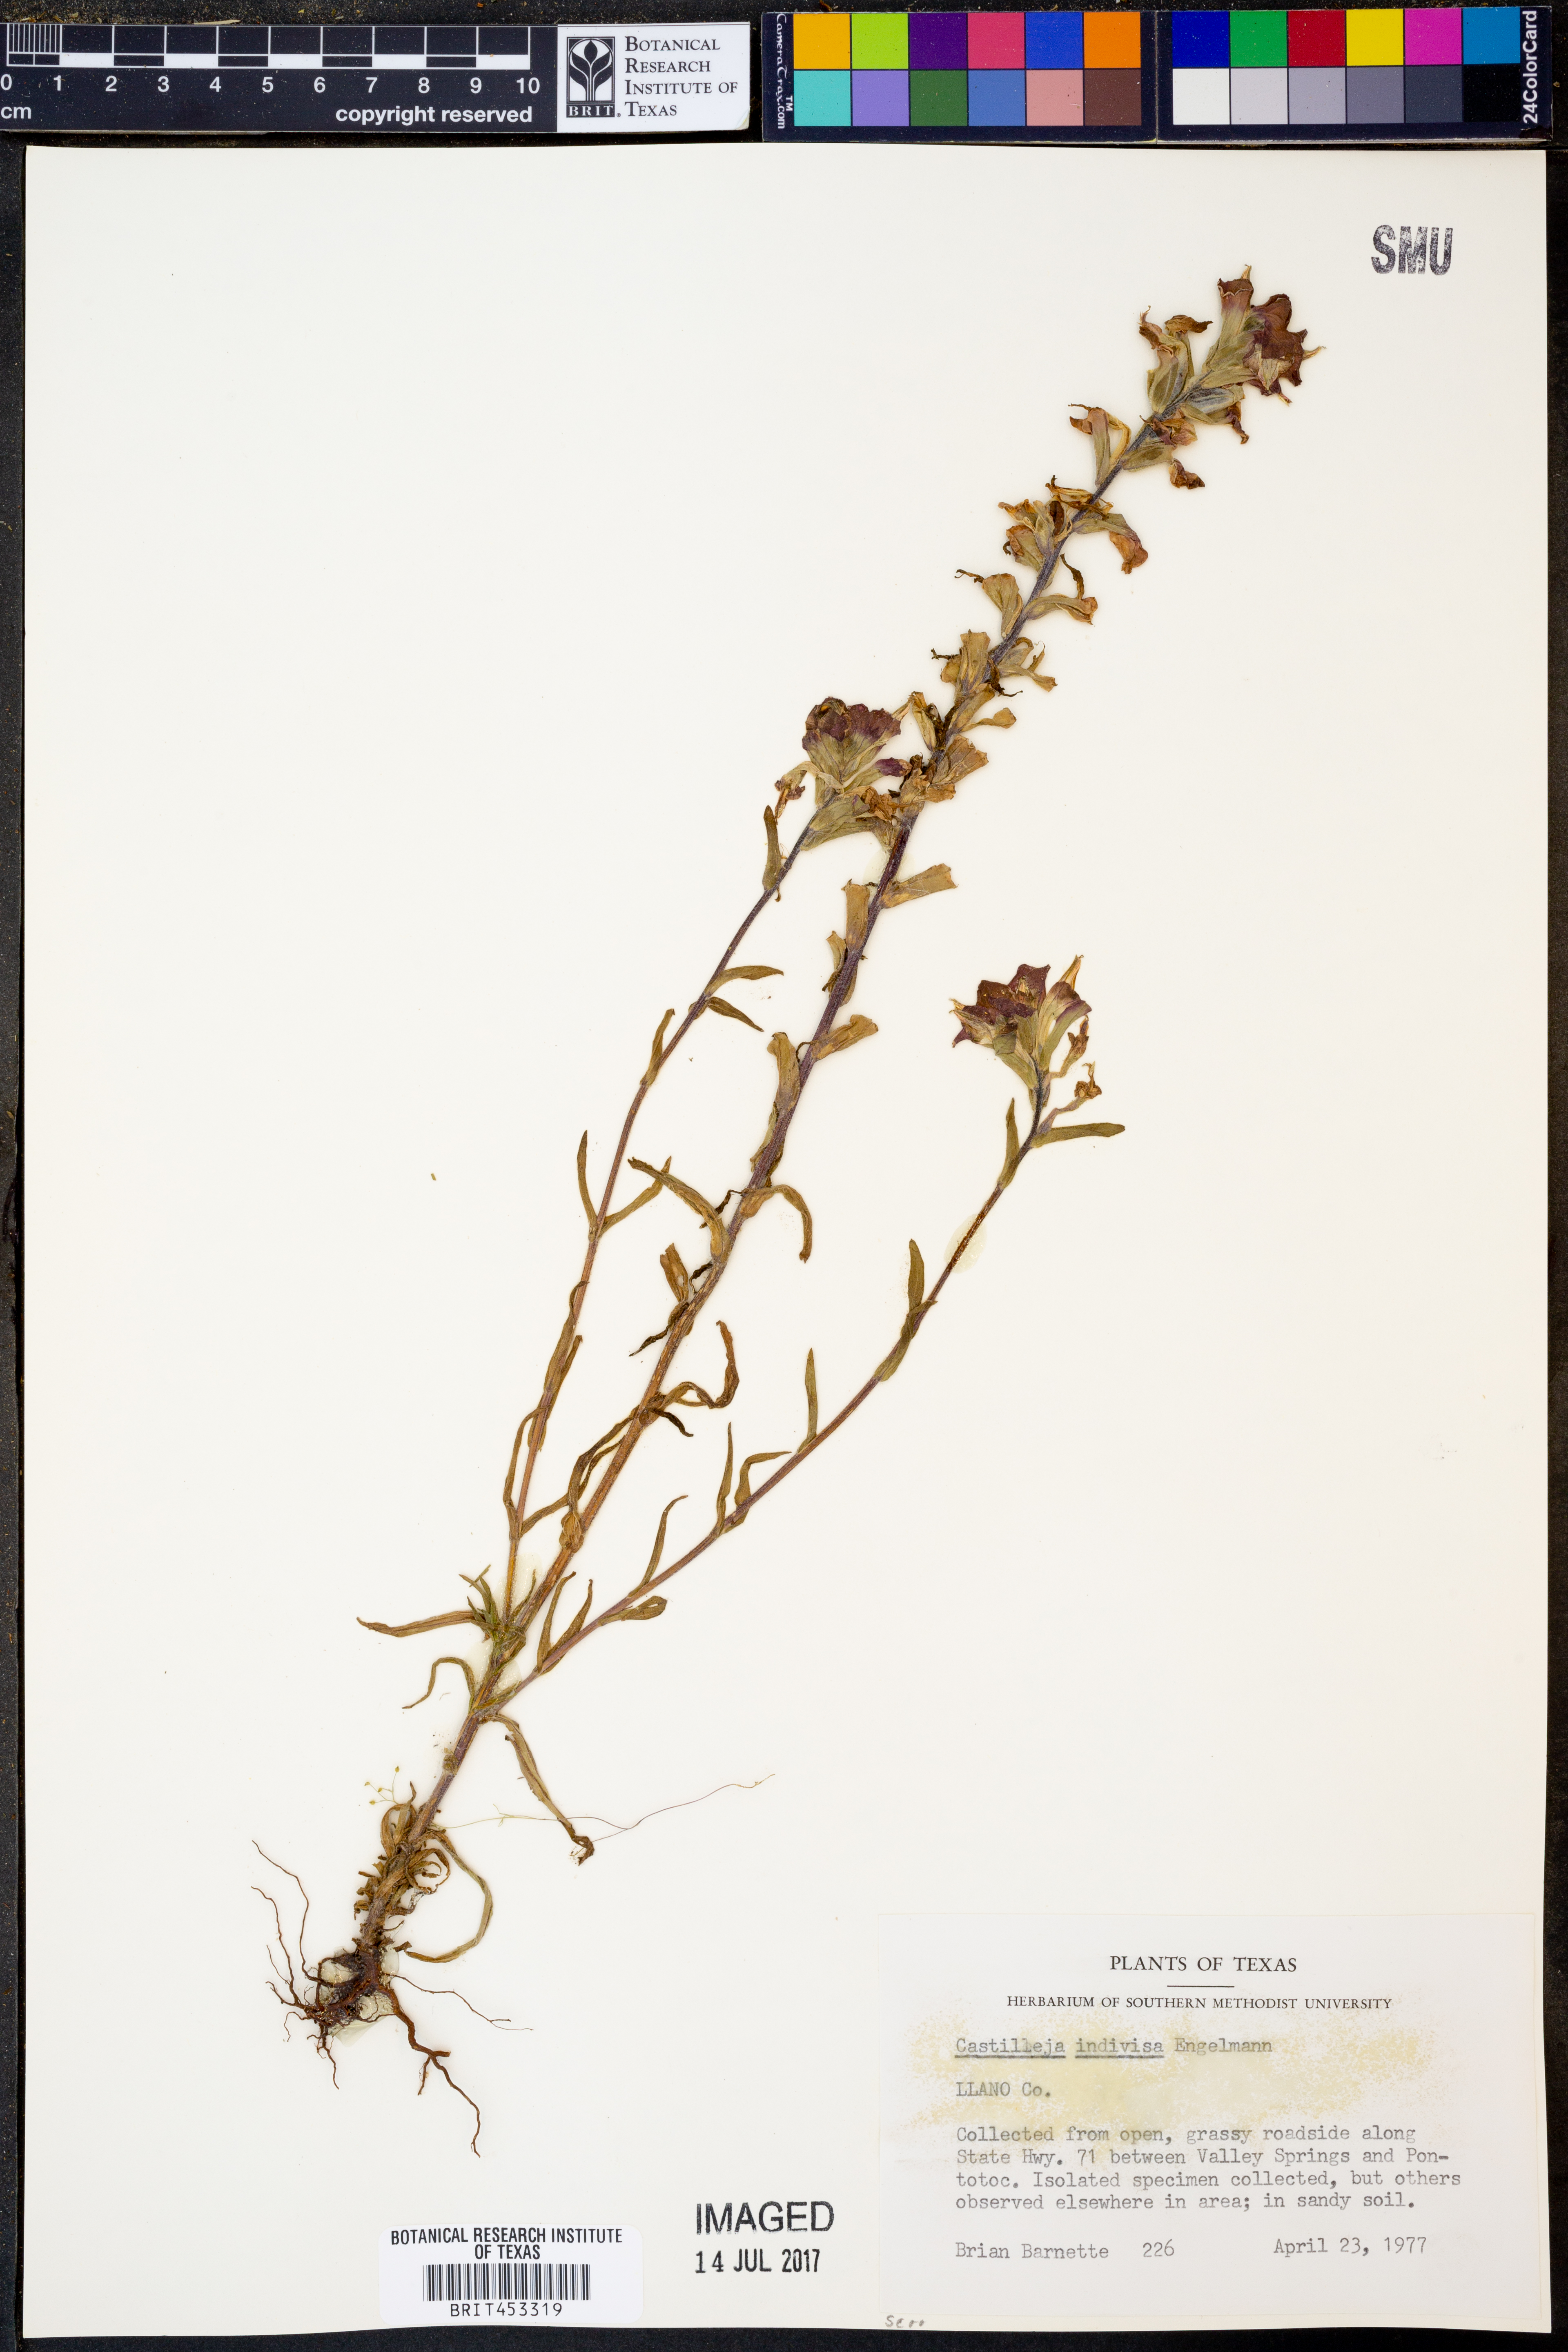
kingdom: Plantae
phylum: Tracheophyta
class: Magnoliopsida
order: Lamiales
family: Orobanchaceae
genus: Castilleja
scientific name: Castilleja indivisa
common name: Texas paintbrush
